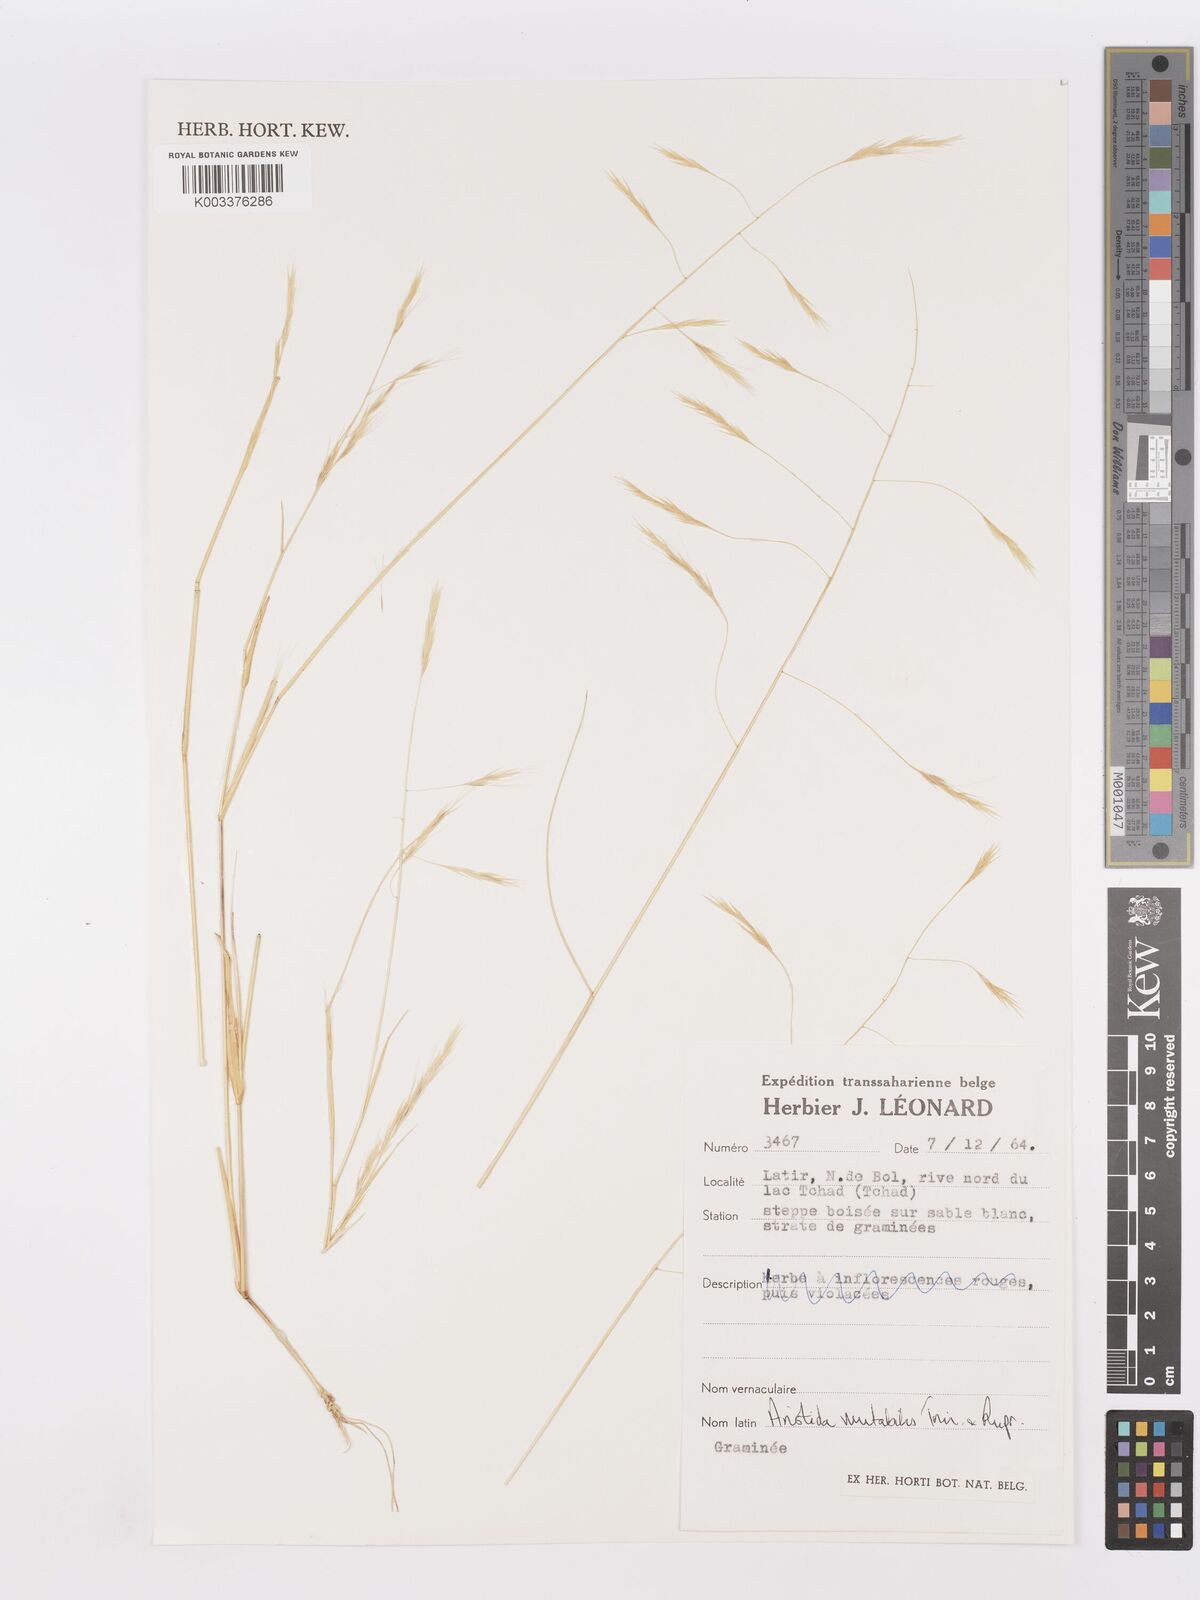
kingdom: Plantae
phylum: Tracheophyta
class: Liliopsida
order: Poales
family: Poaceae
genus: Aristida
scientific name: Aristida mutabilis
